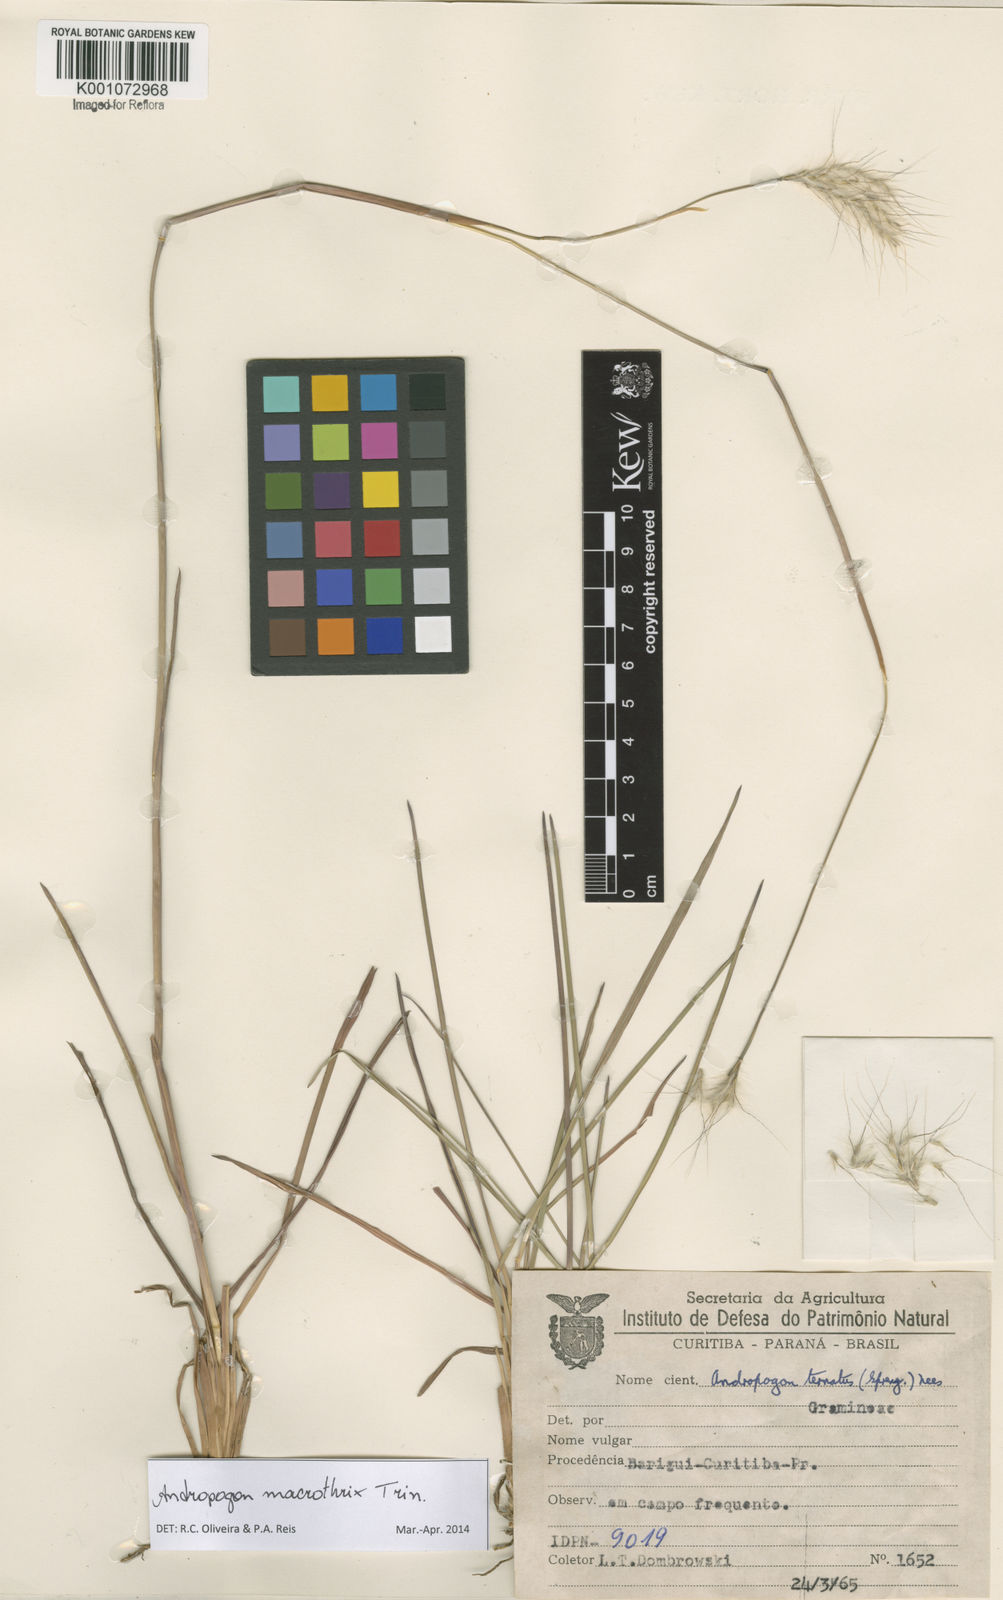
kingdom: Plantae
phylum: Tracheophyta
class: Liliopsida
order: Poales
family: Poaceae
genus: Andropogon
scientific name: Andropogon macrothrix
